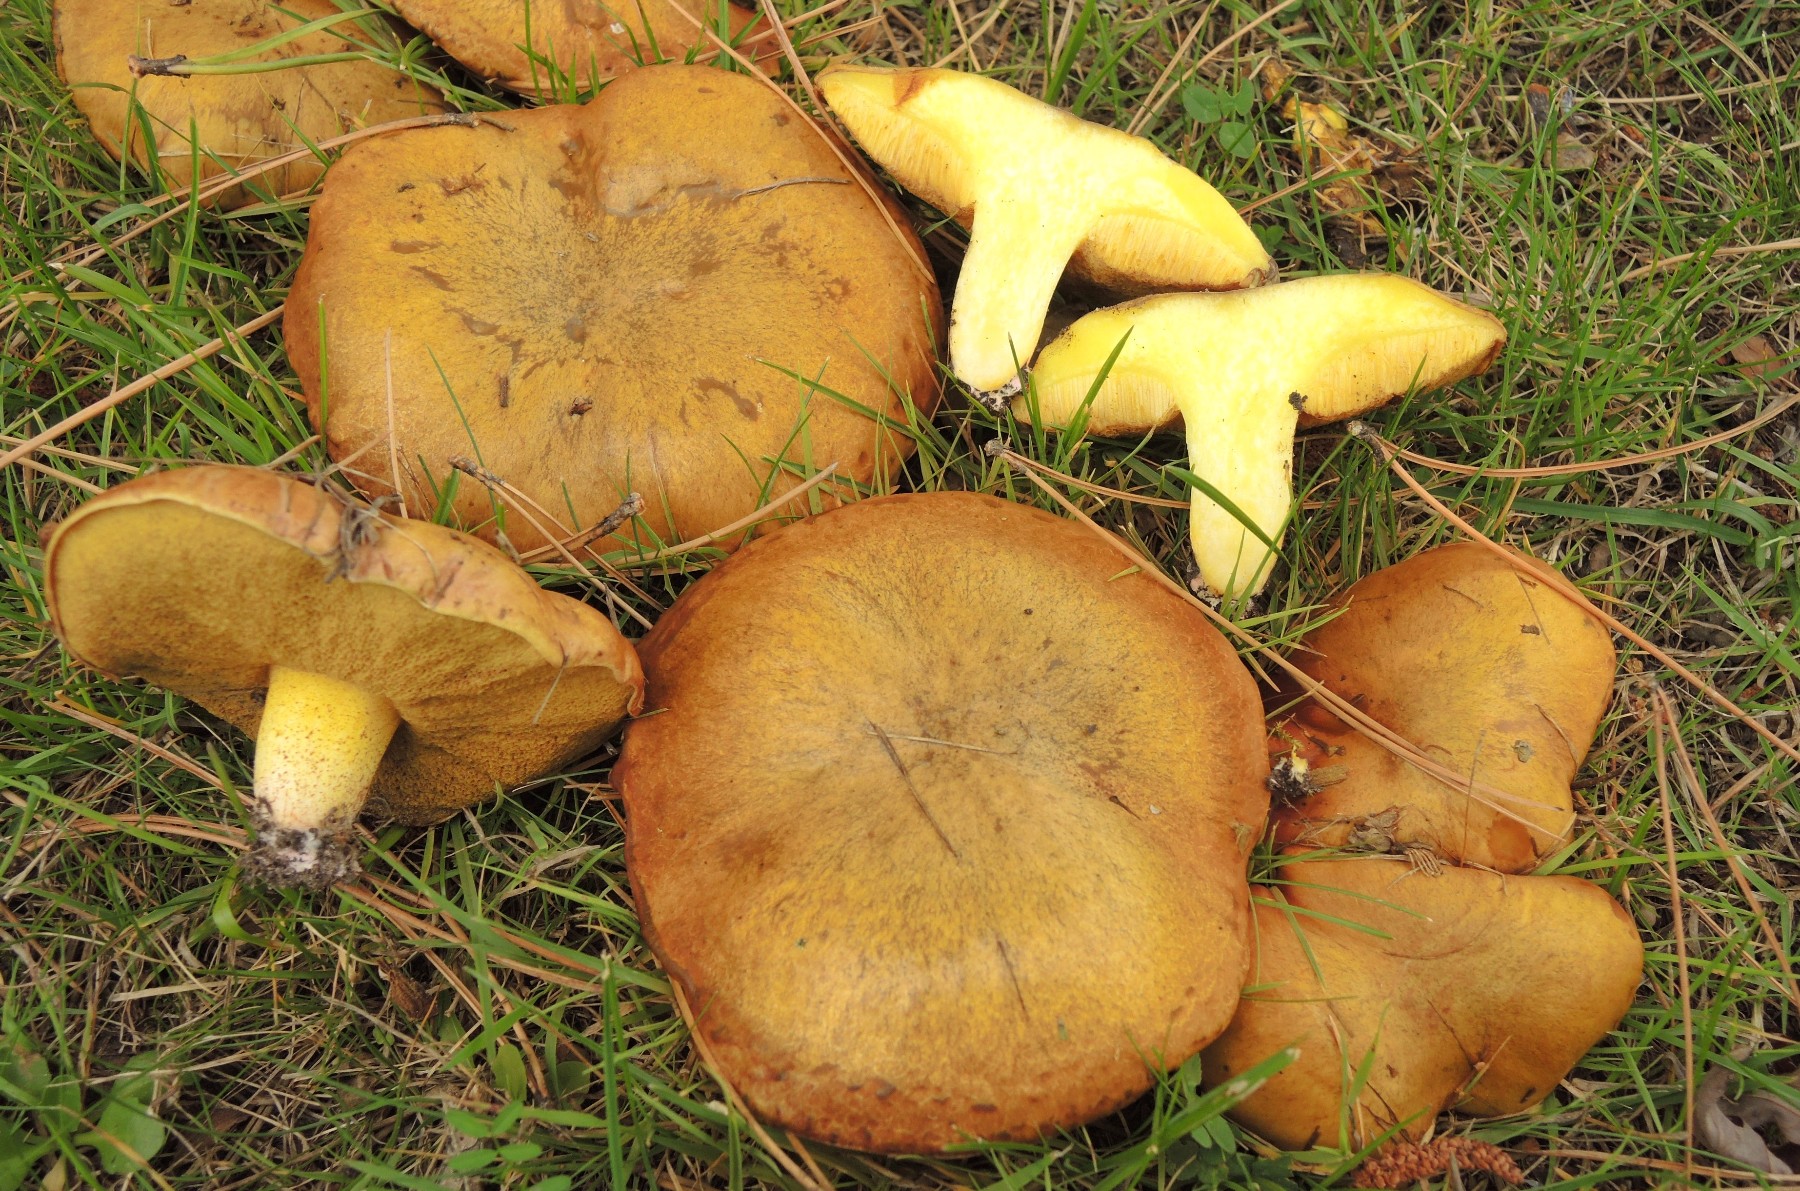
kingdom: Fungi
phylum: Basidiomycota
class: Agaricomycetes
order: Boletales
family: Suillaceae
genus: Suillus
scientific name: Suillus collinitus
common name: rosafodet slimrørhat
